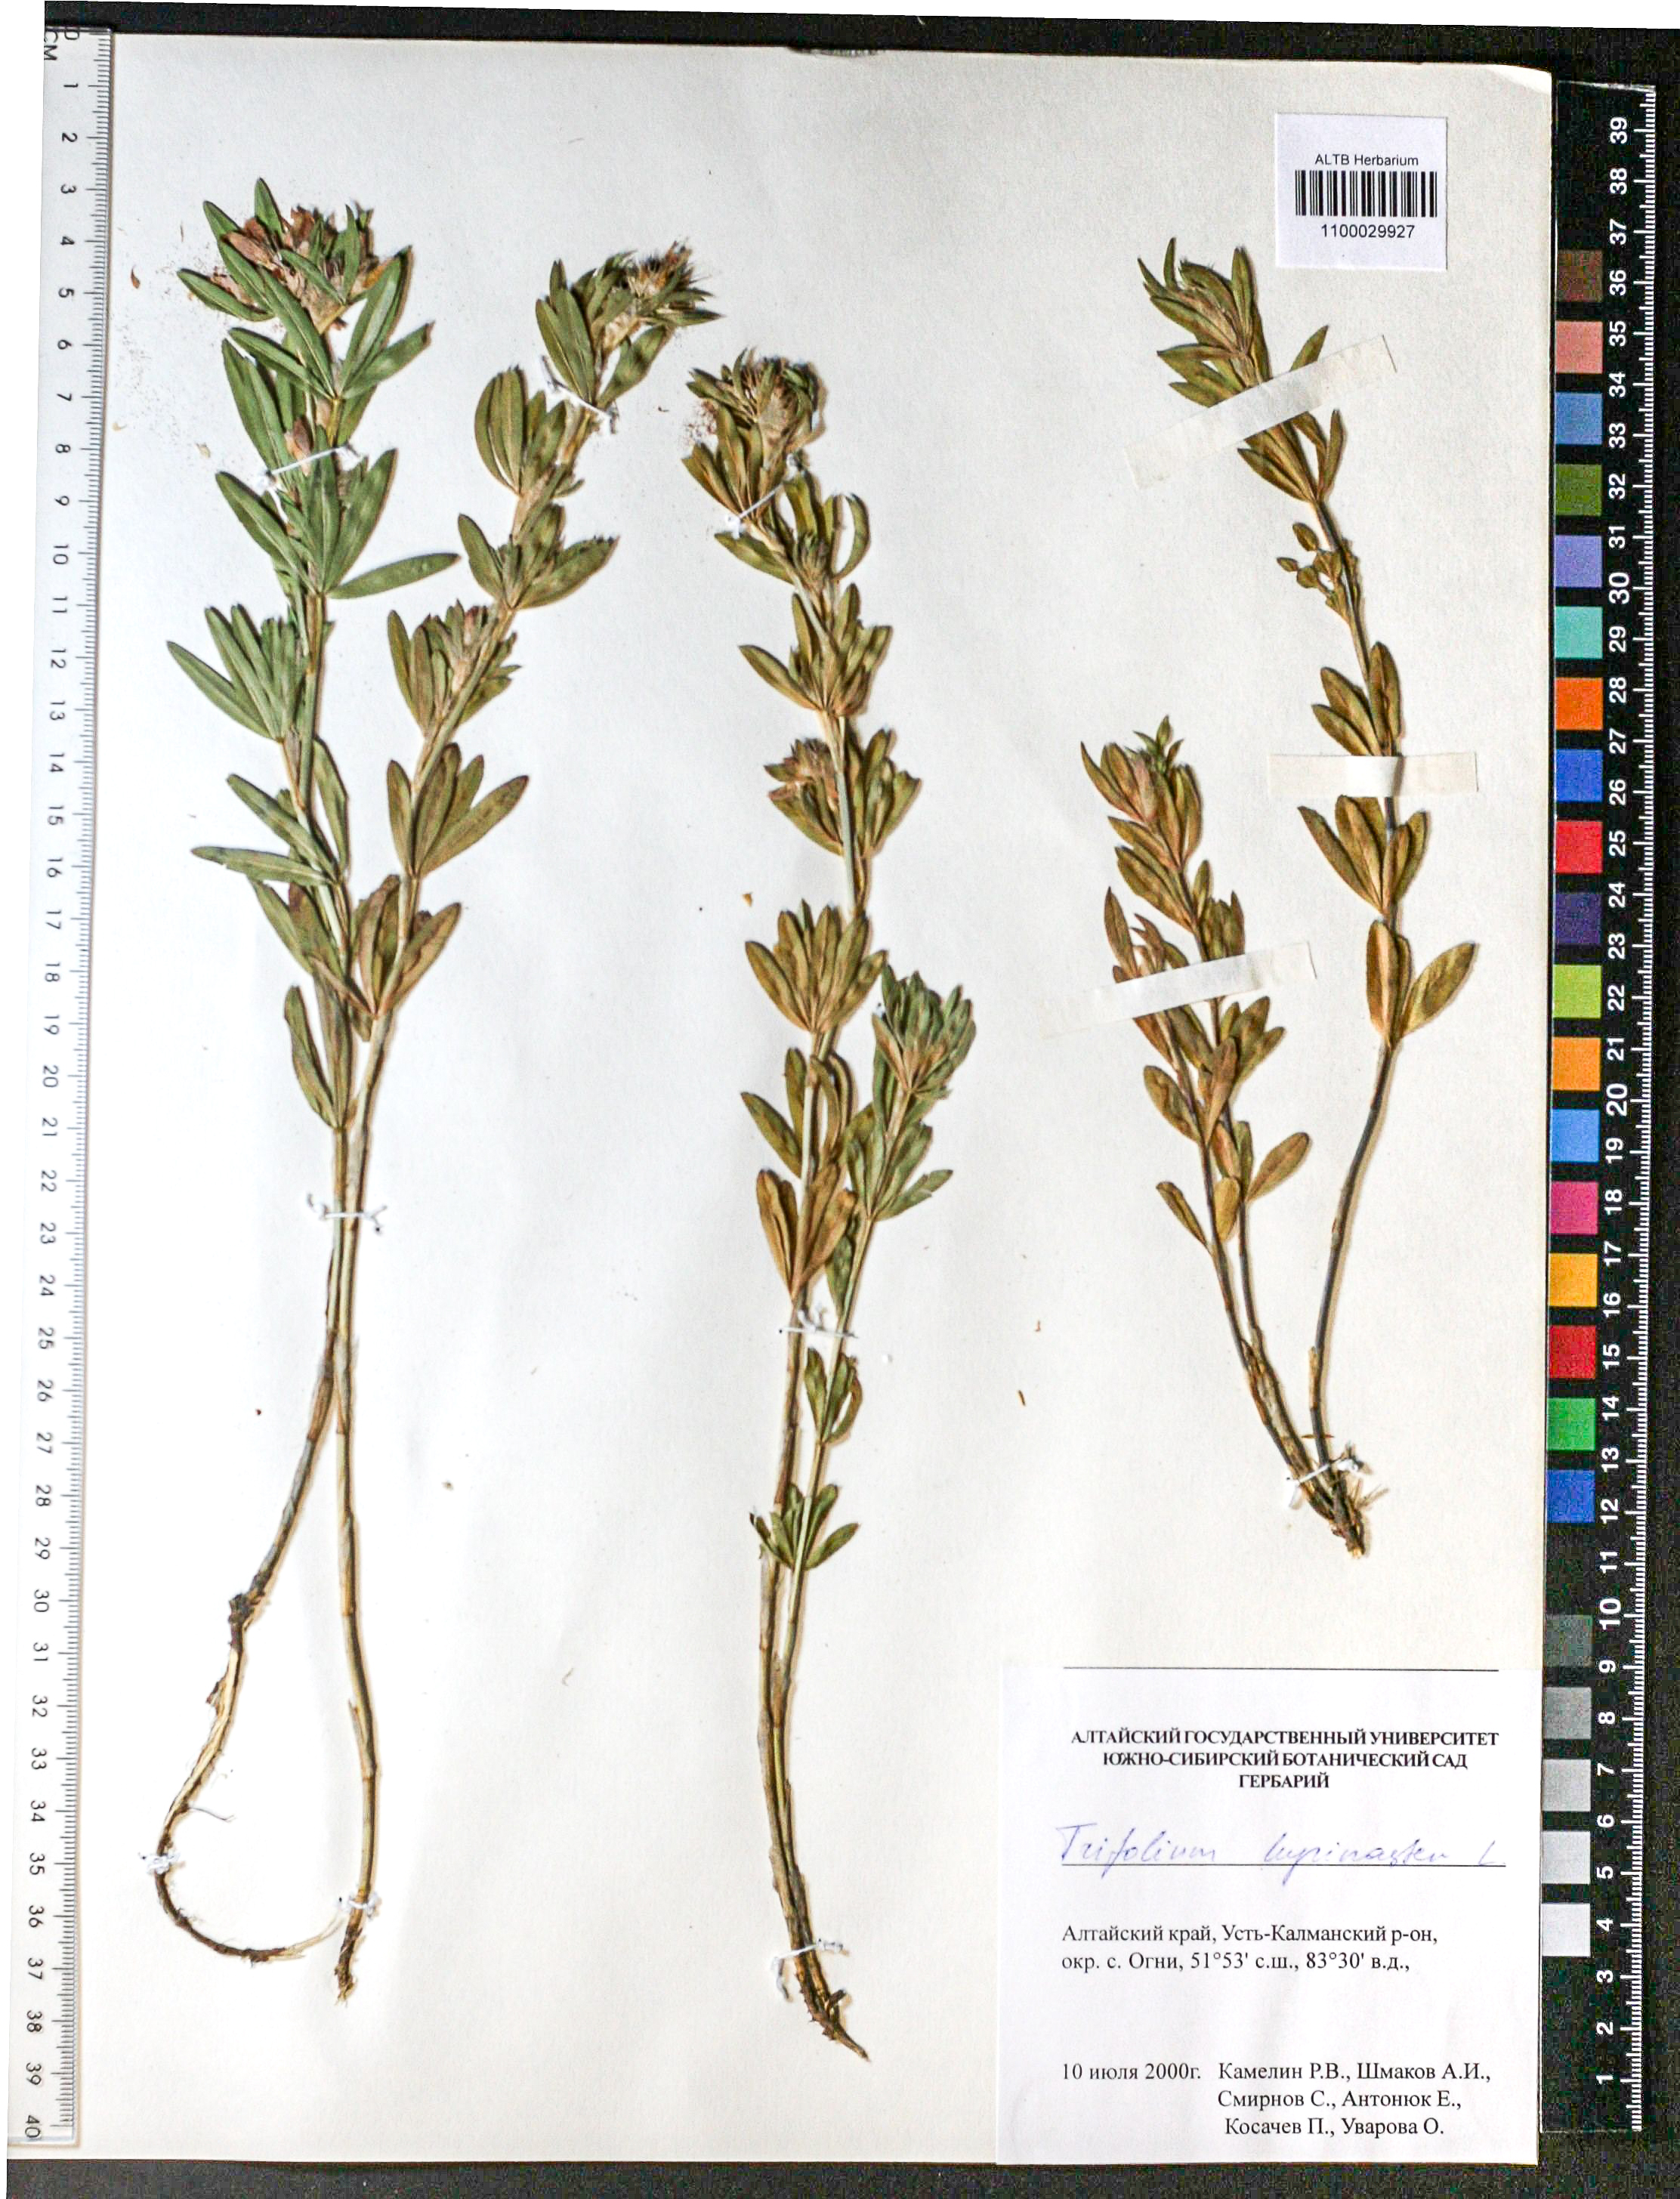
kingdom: Plantae
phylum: Tracheophyta
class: Magnoliopsida
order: Fabales
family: Fabaceae
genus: Trifolium
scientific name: Trifolium lupinaster
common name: Lupine clover
